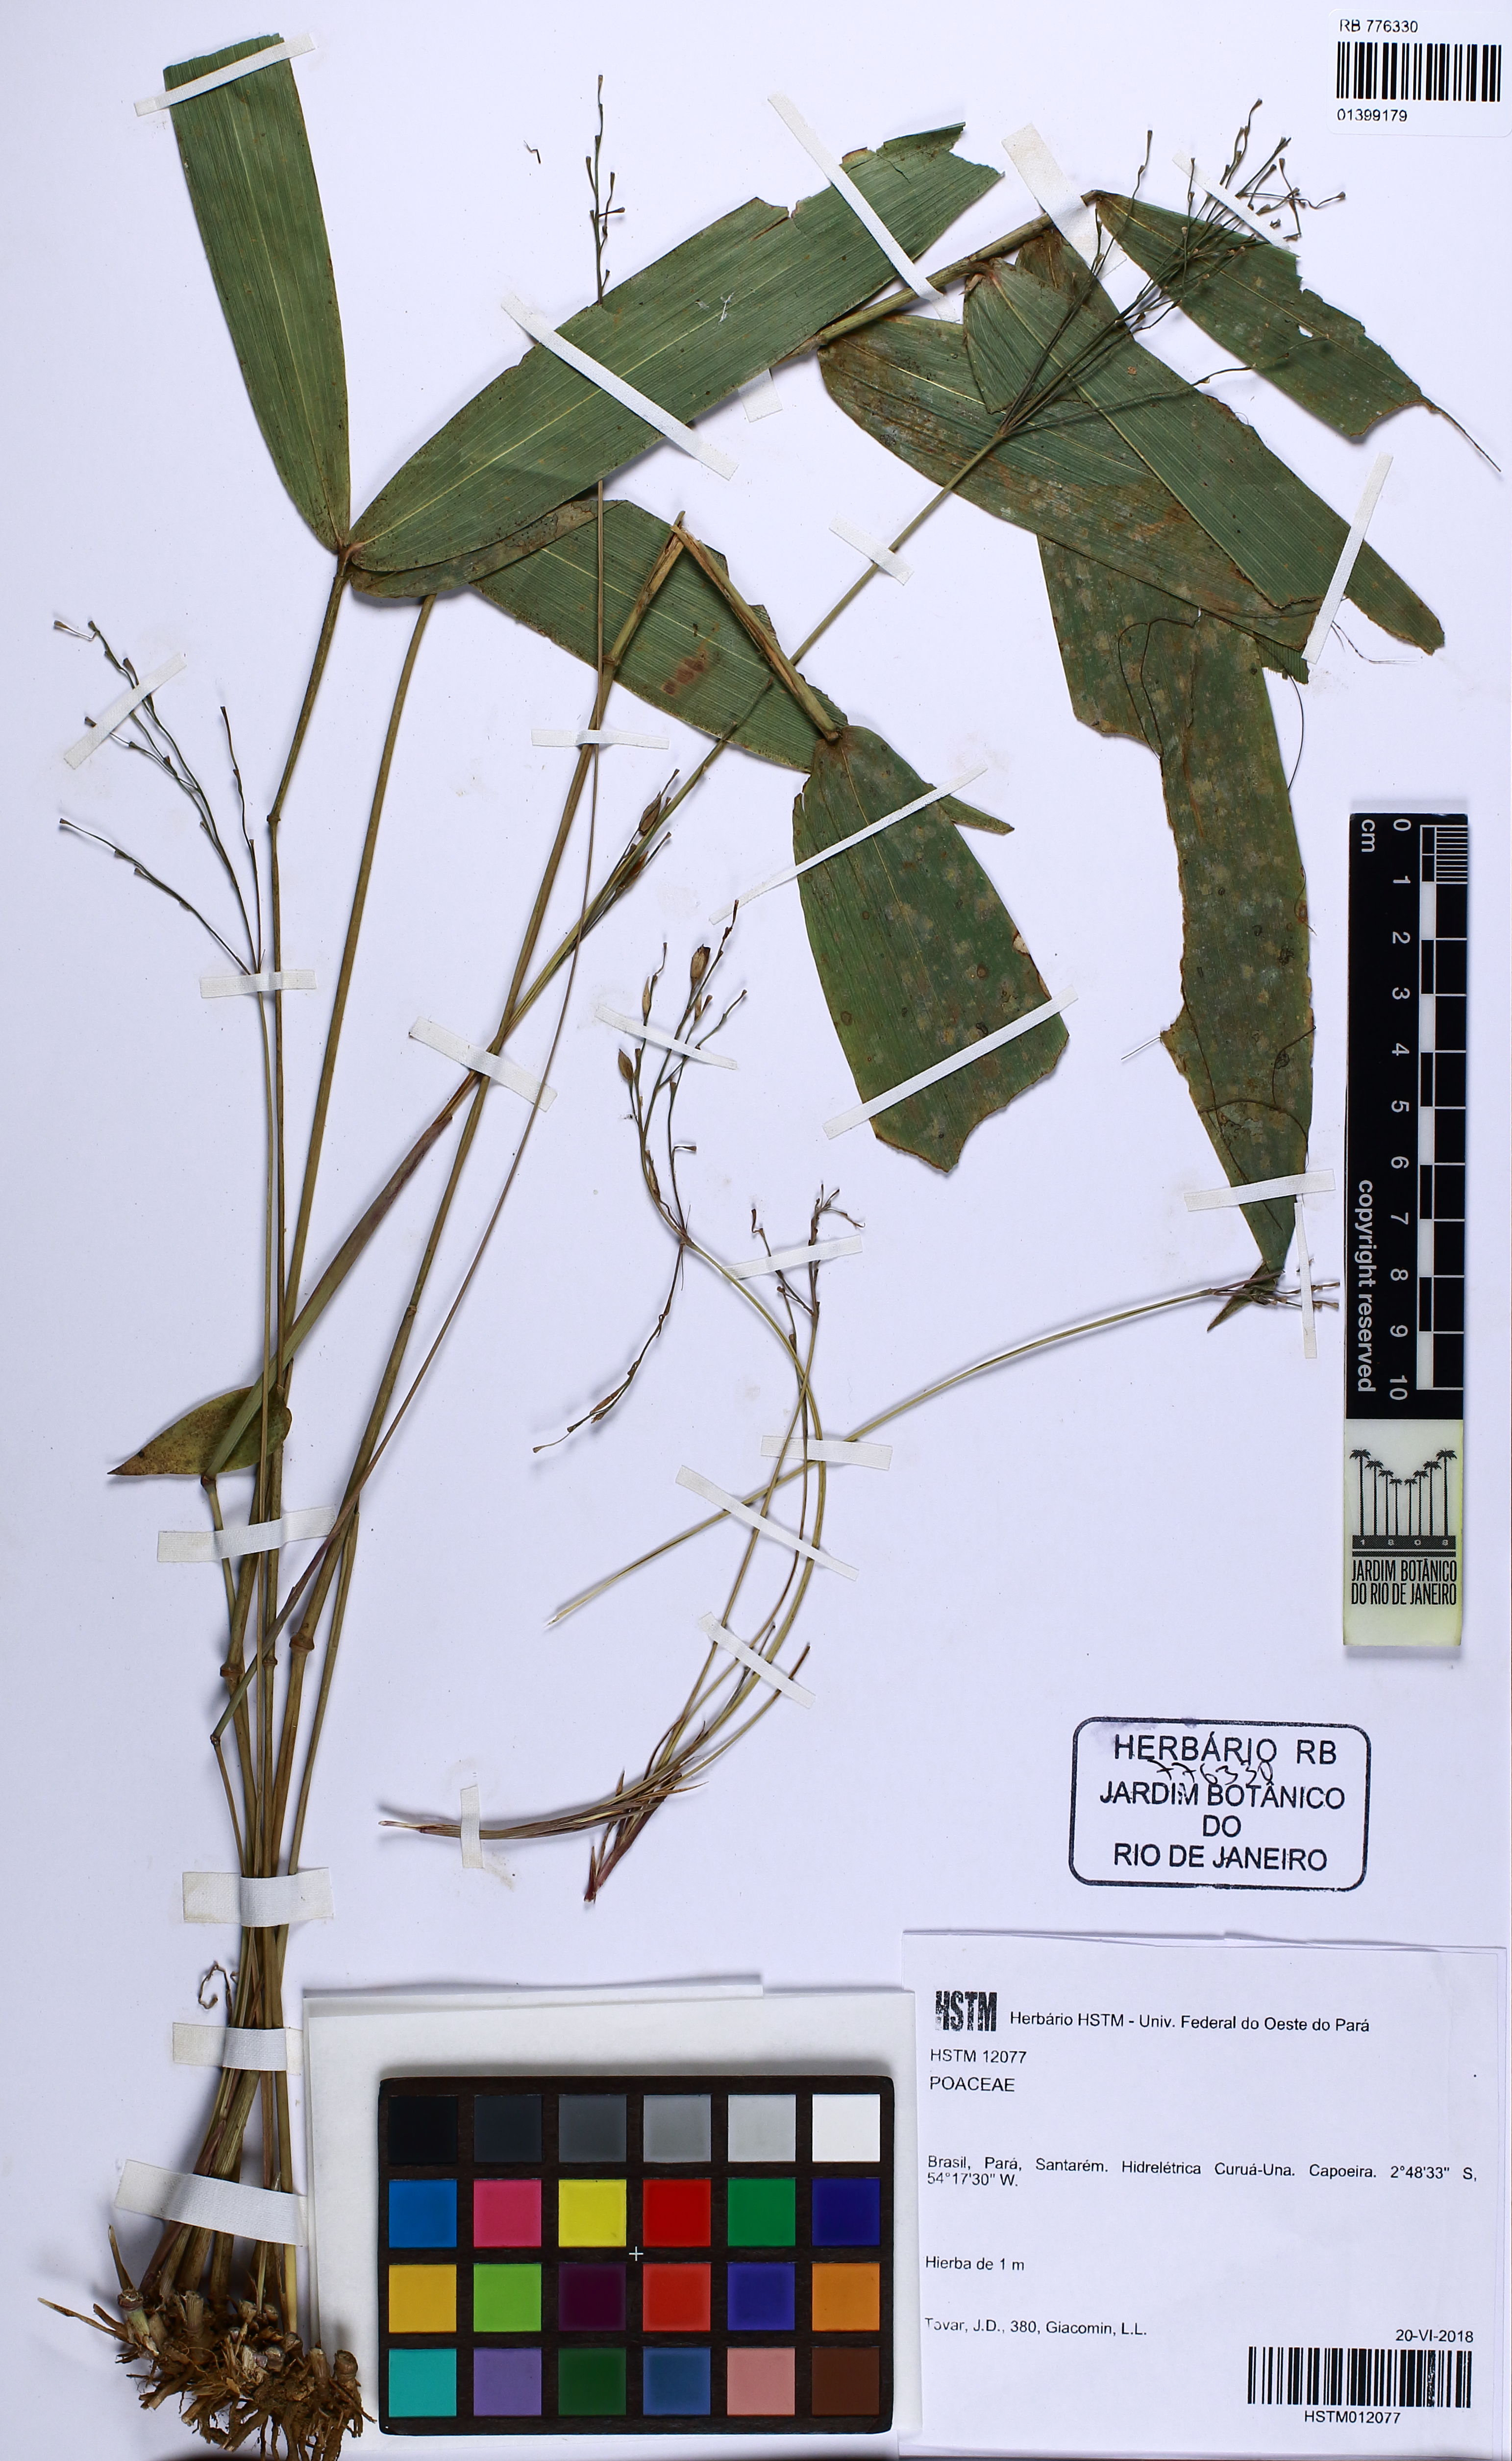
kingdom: Plantae
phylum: Tracheophyta
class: Liliopsida
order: Poales
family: Poaceae
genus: Olyra
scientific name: Olyra ecaudata
